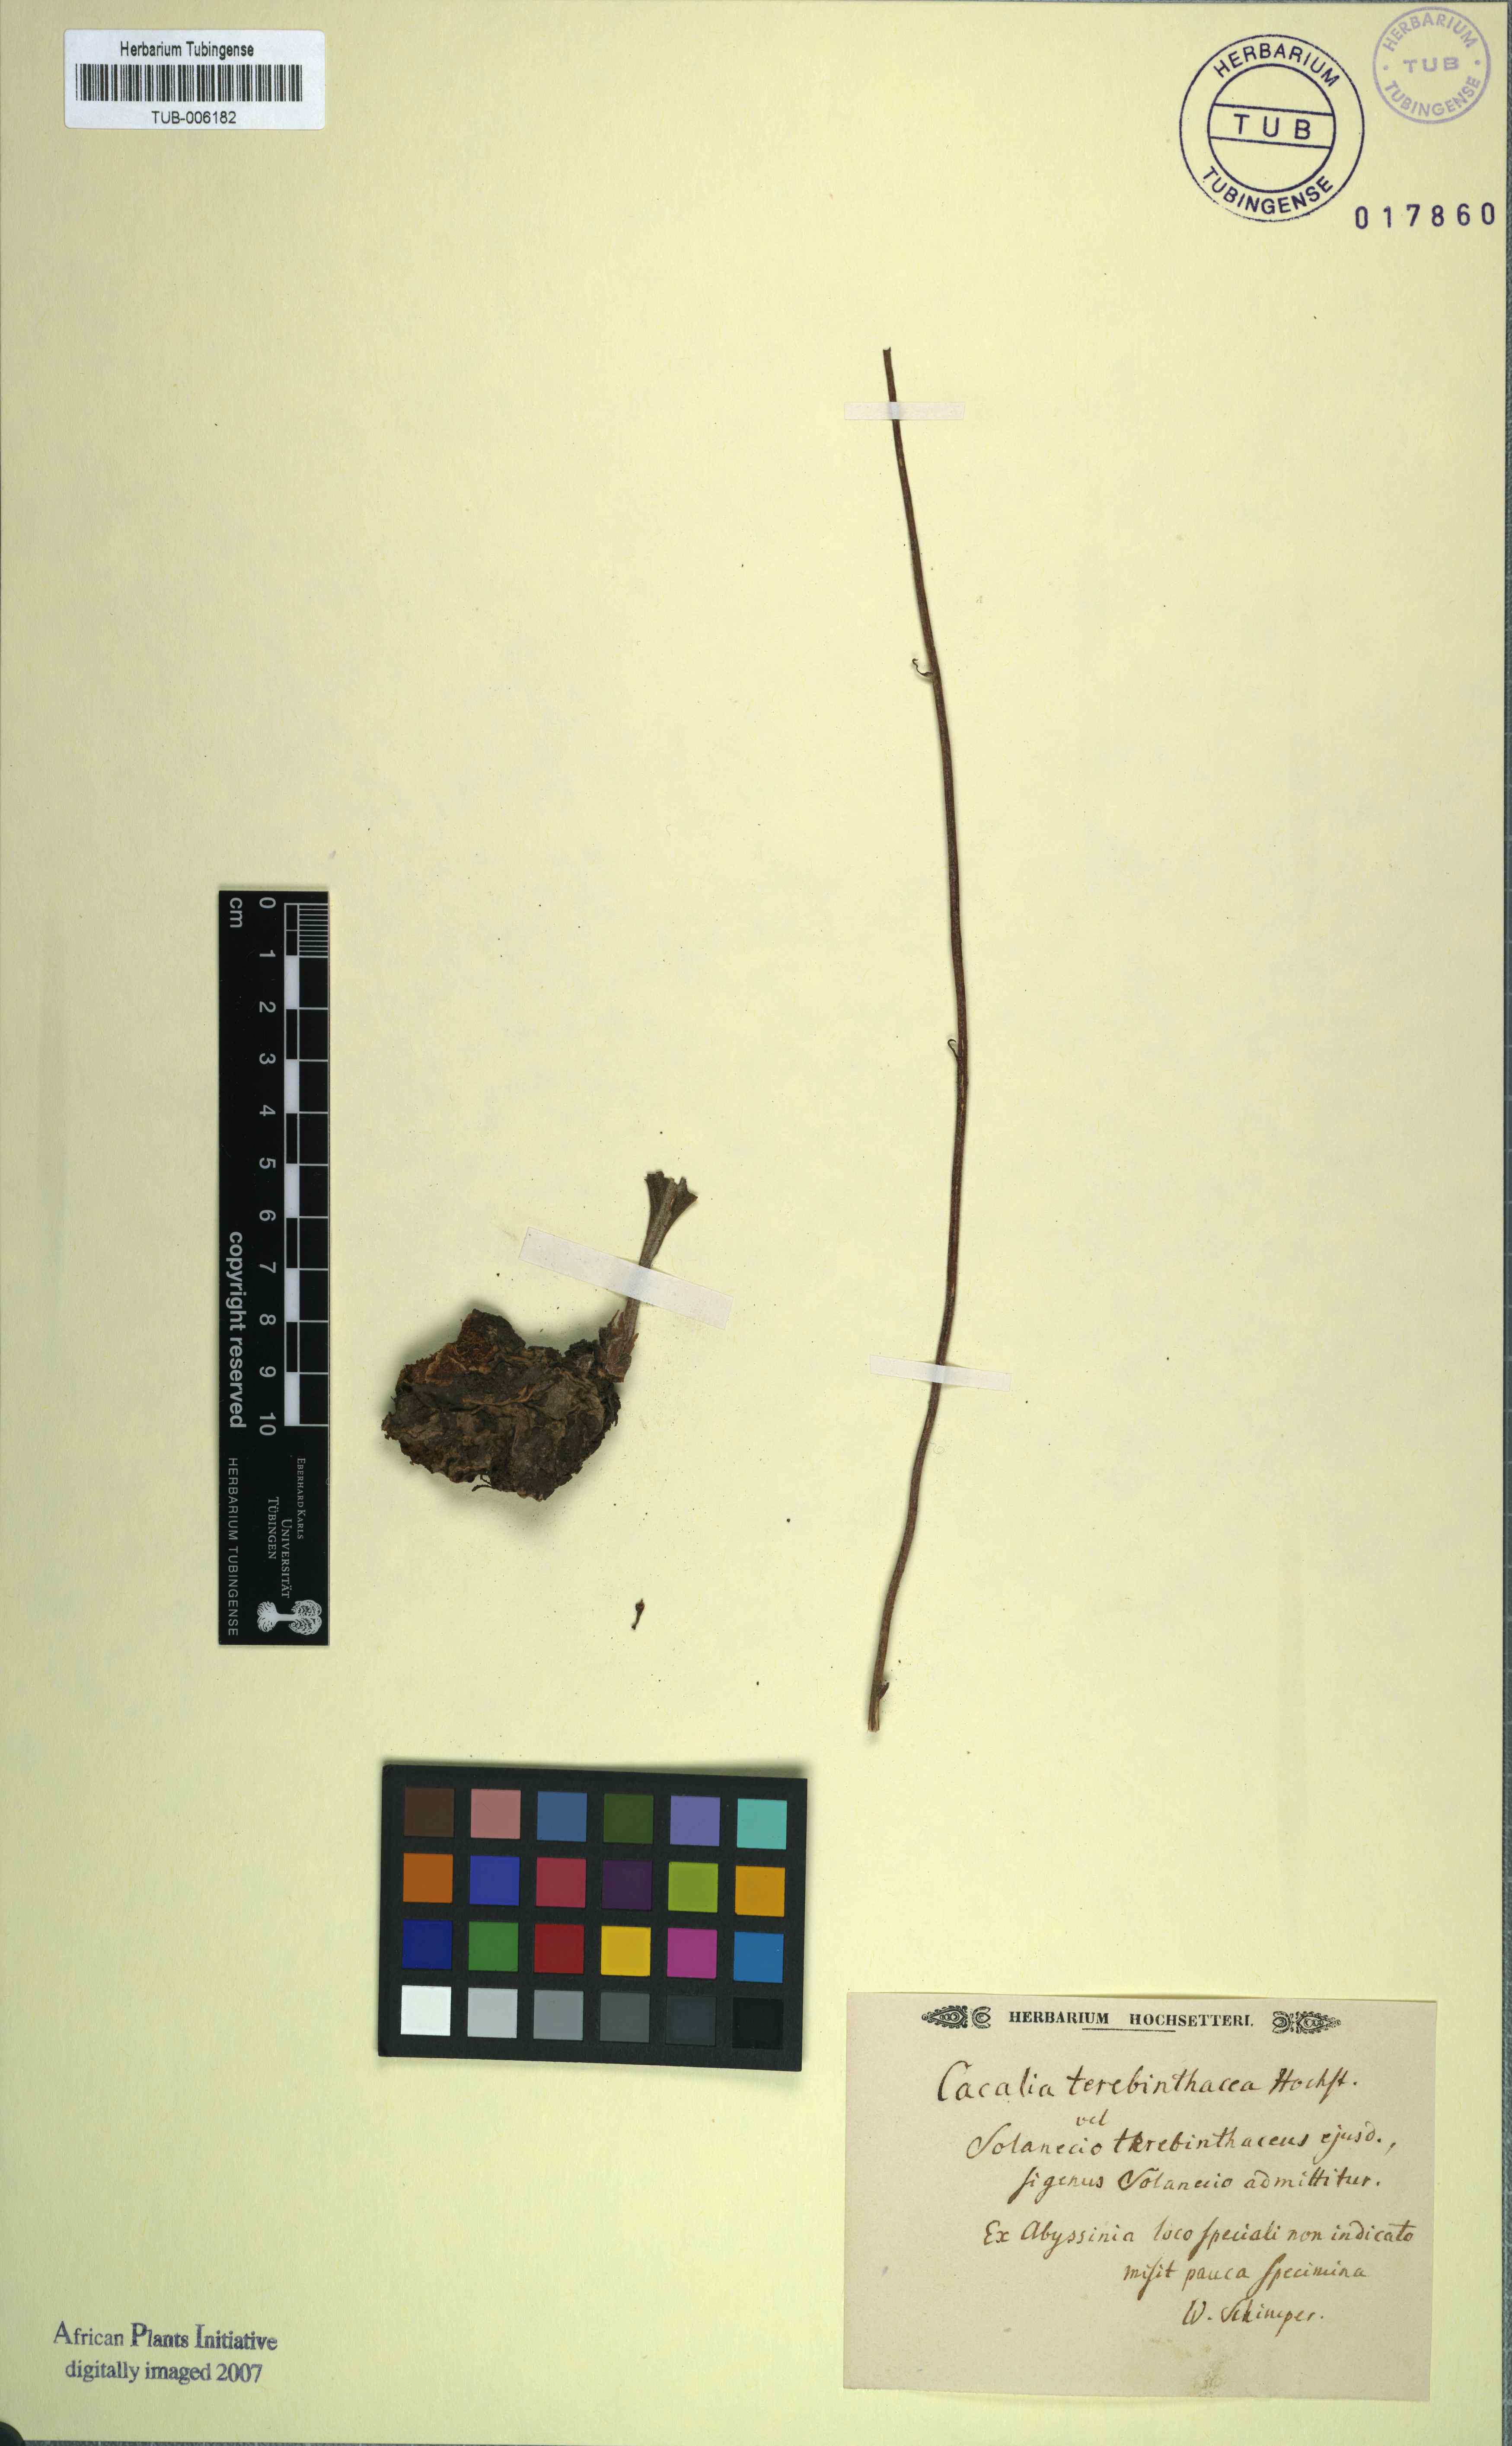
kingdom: Plantae
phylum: Tracheophyta
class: Magnoliopsida
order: Asterales
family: Asteraceae
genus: Cacalia
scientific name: Cacalia
